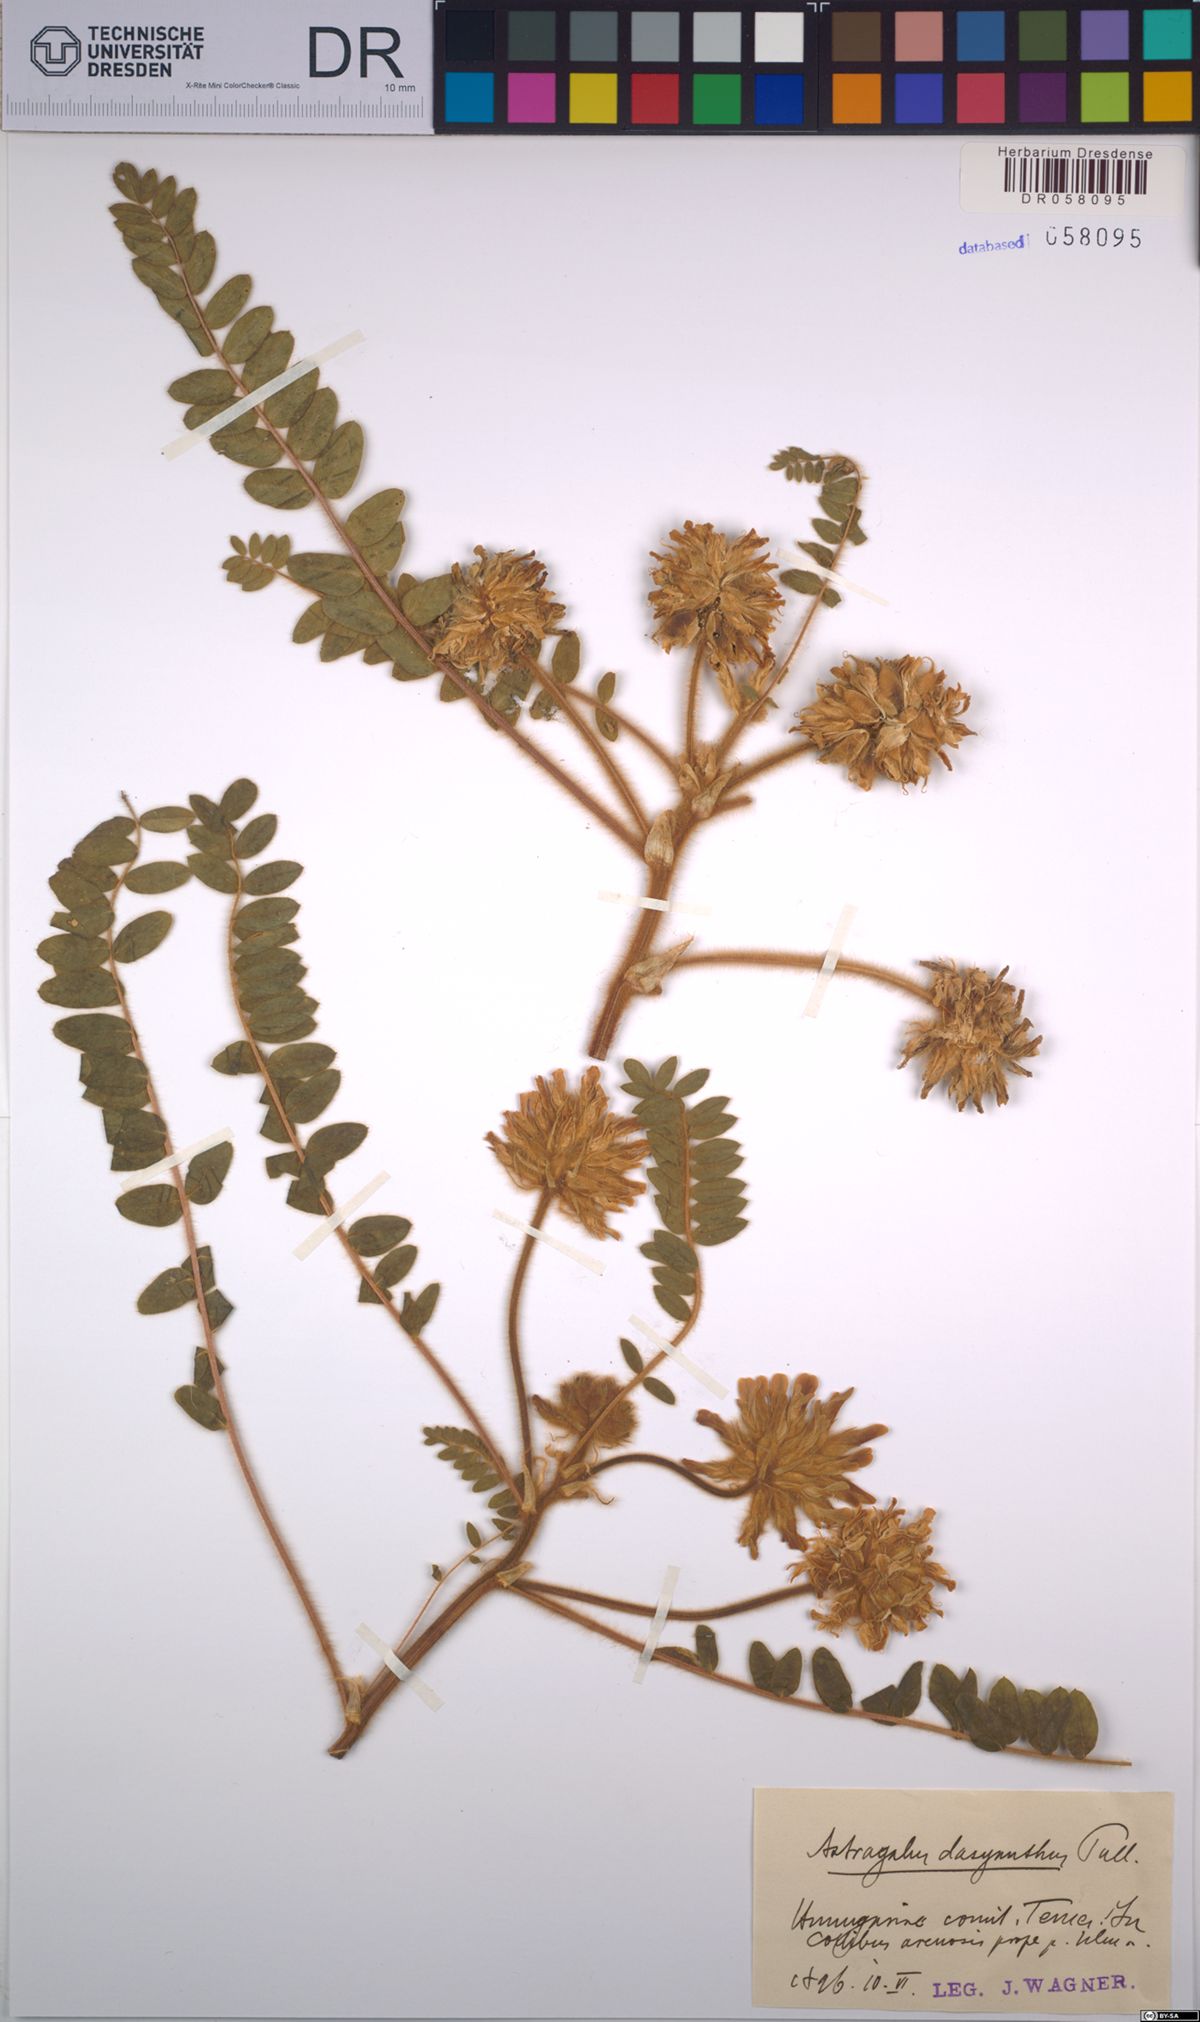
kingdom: Plantae
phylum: Tracheophyta
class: Magnoliopsida
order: Fabales
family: Fabaceae
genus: Astragalus
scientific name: Astragalus dasyanthus
